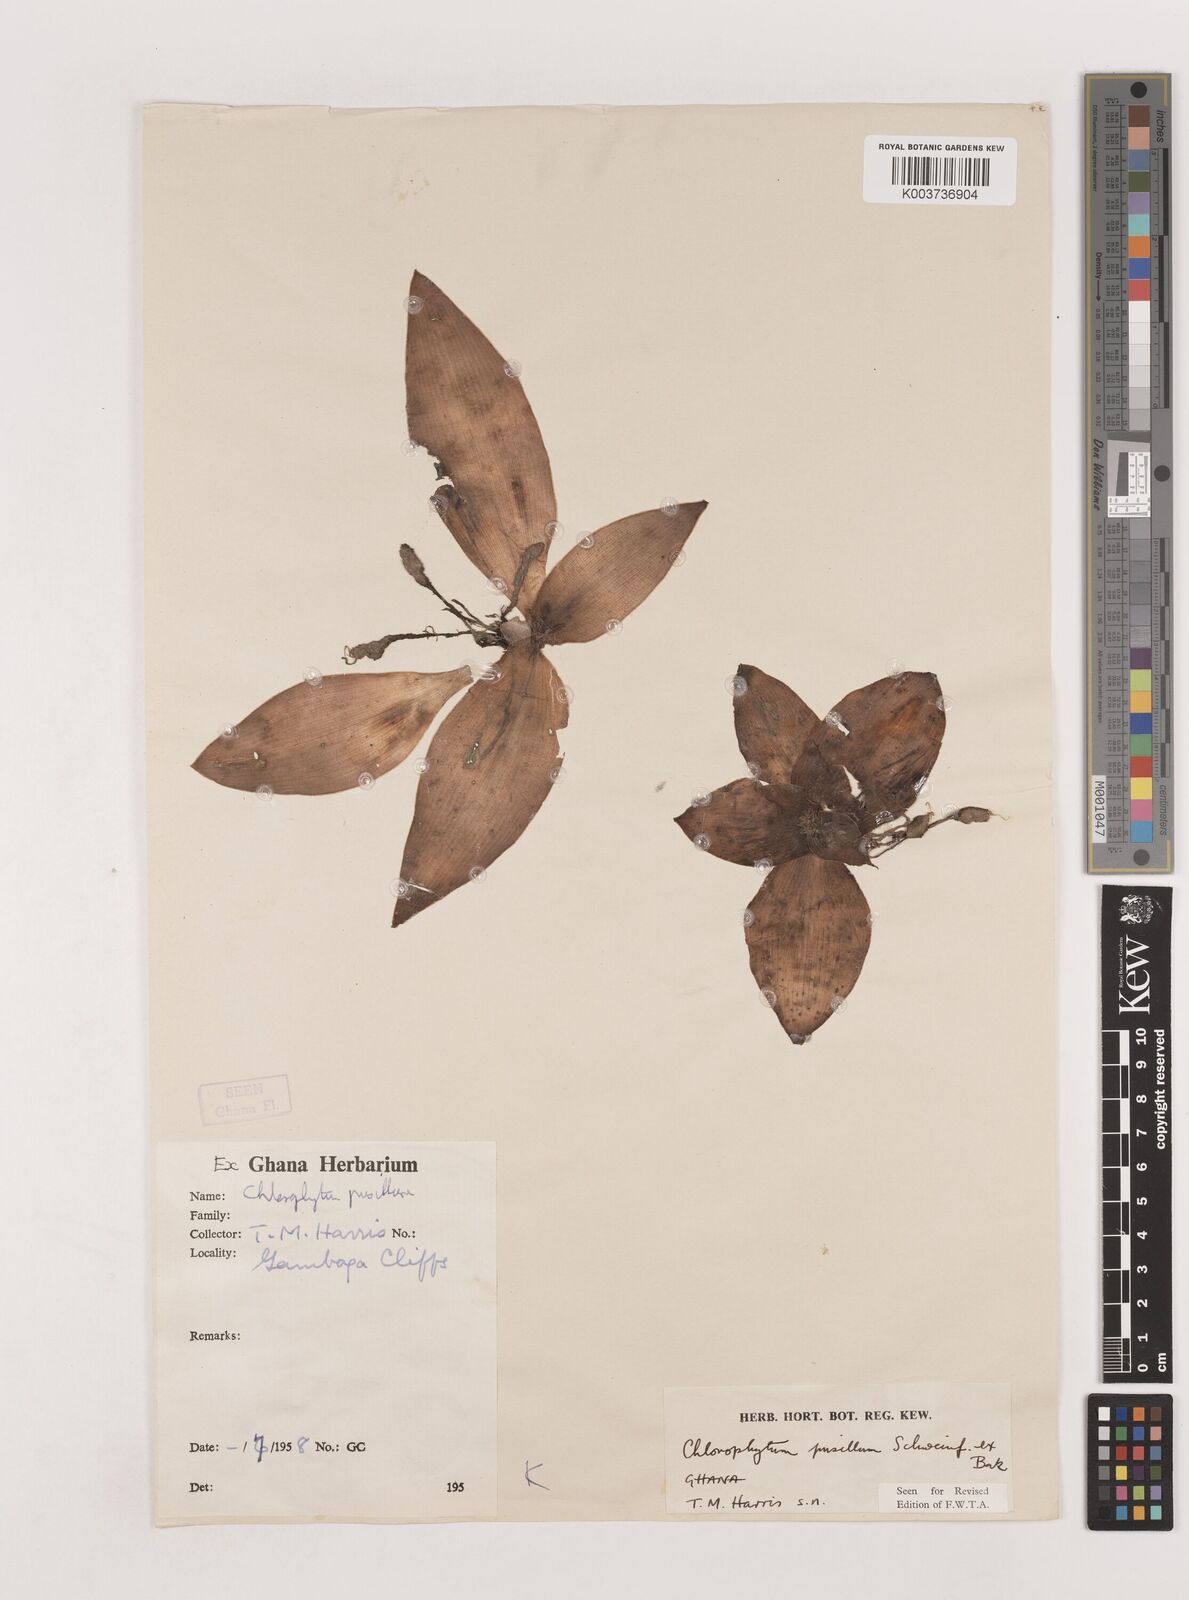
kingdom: Plantae
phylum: Tracheophyta
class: Liliopsida
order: Asparagales
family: Asparagaceae
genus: Chlorophytum
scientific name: Chlorophytum pusillum
